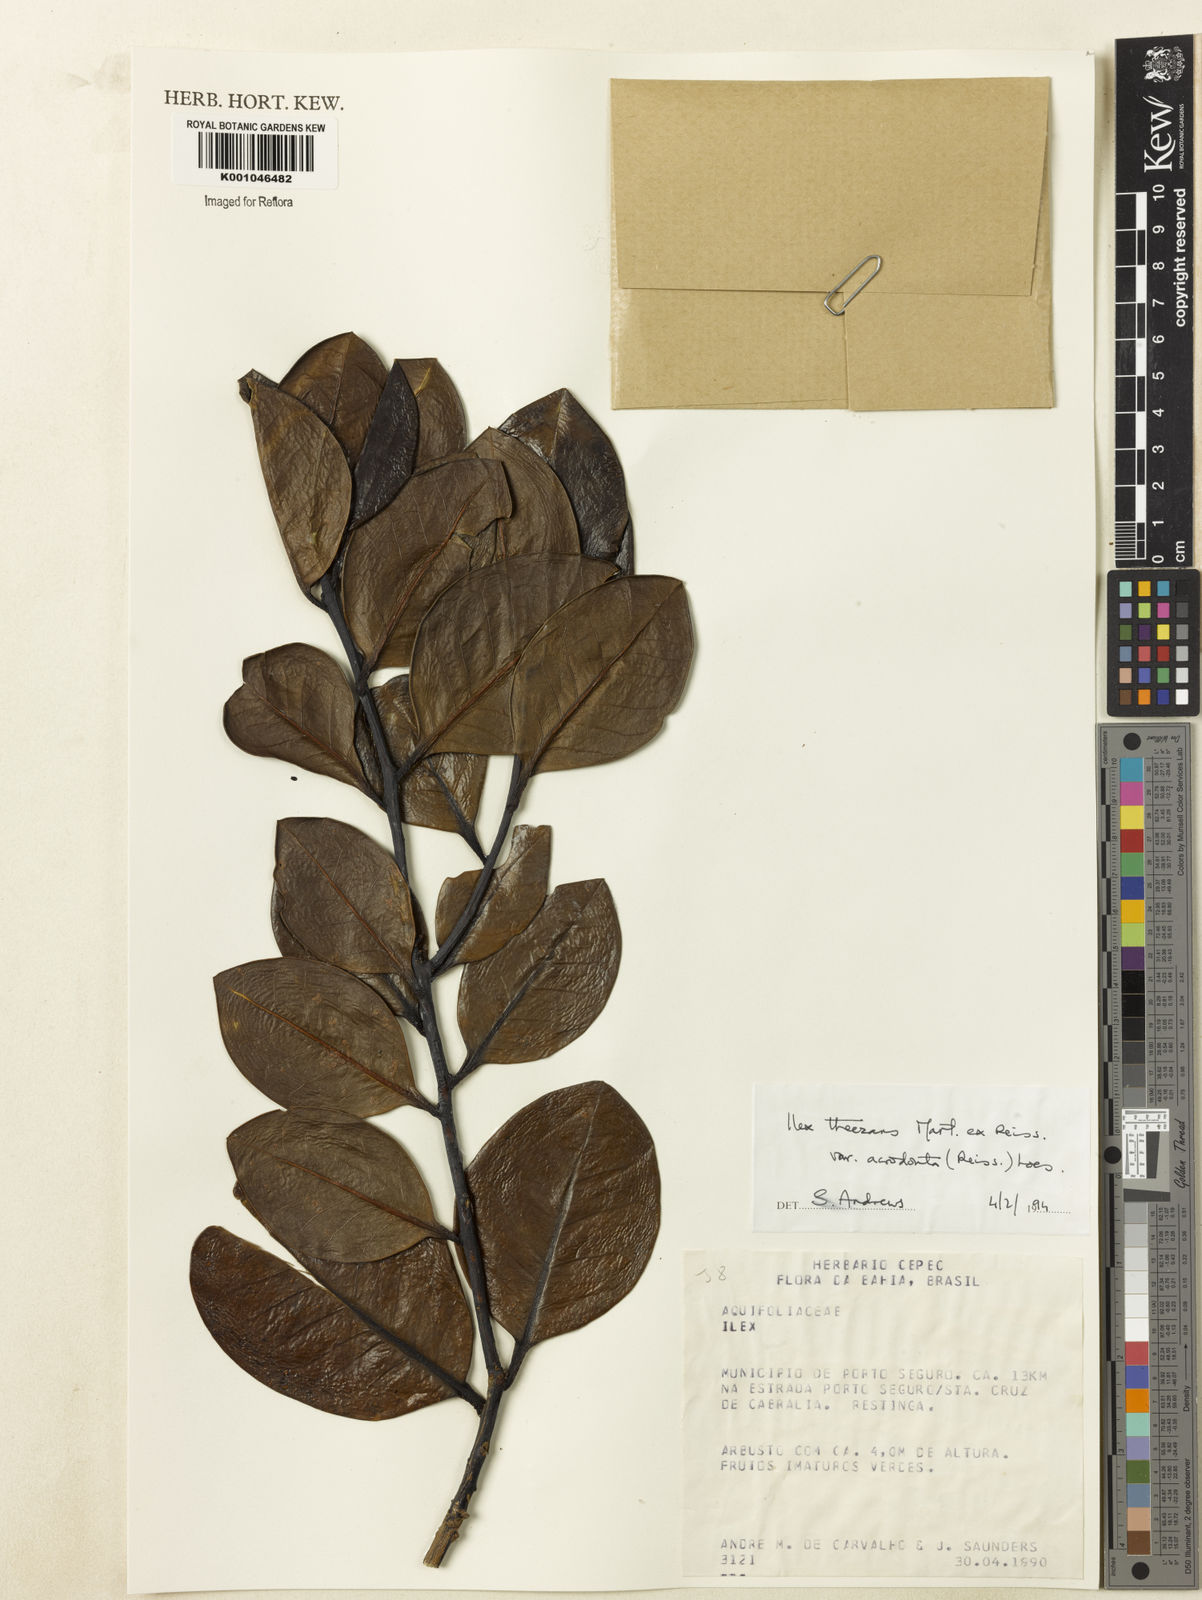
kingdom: Plantae
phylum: Tracheophyta
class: Magnoliopsida
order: Aquifoliales
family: Aquifoliaceae
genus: Ilex
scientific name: Ilex paraguariensis
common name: Paraguay tea
